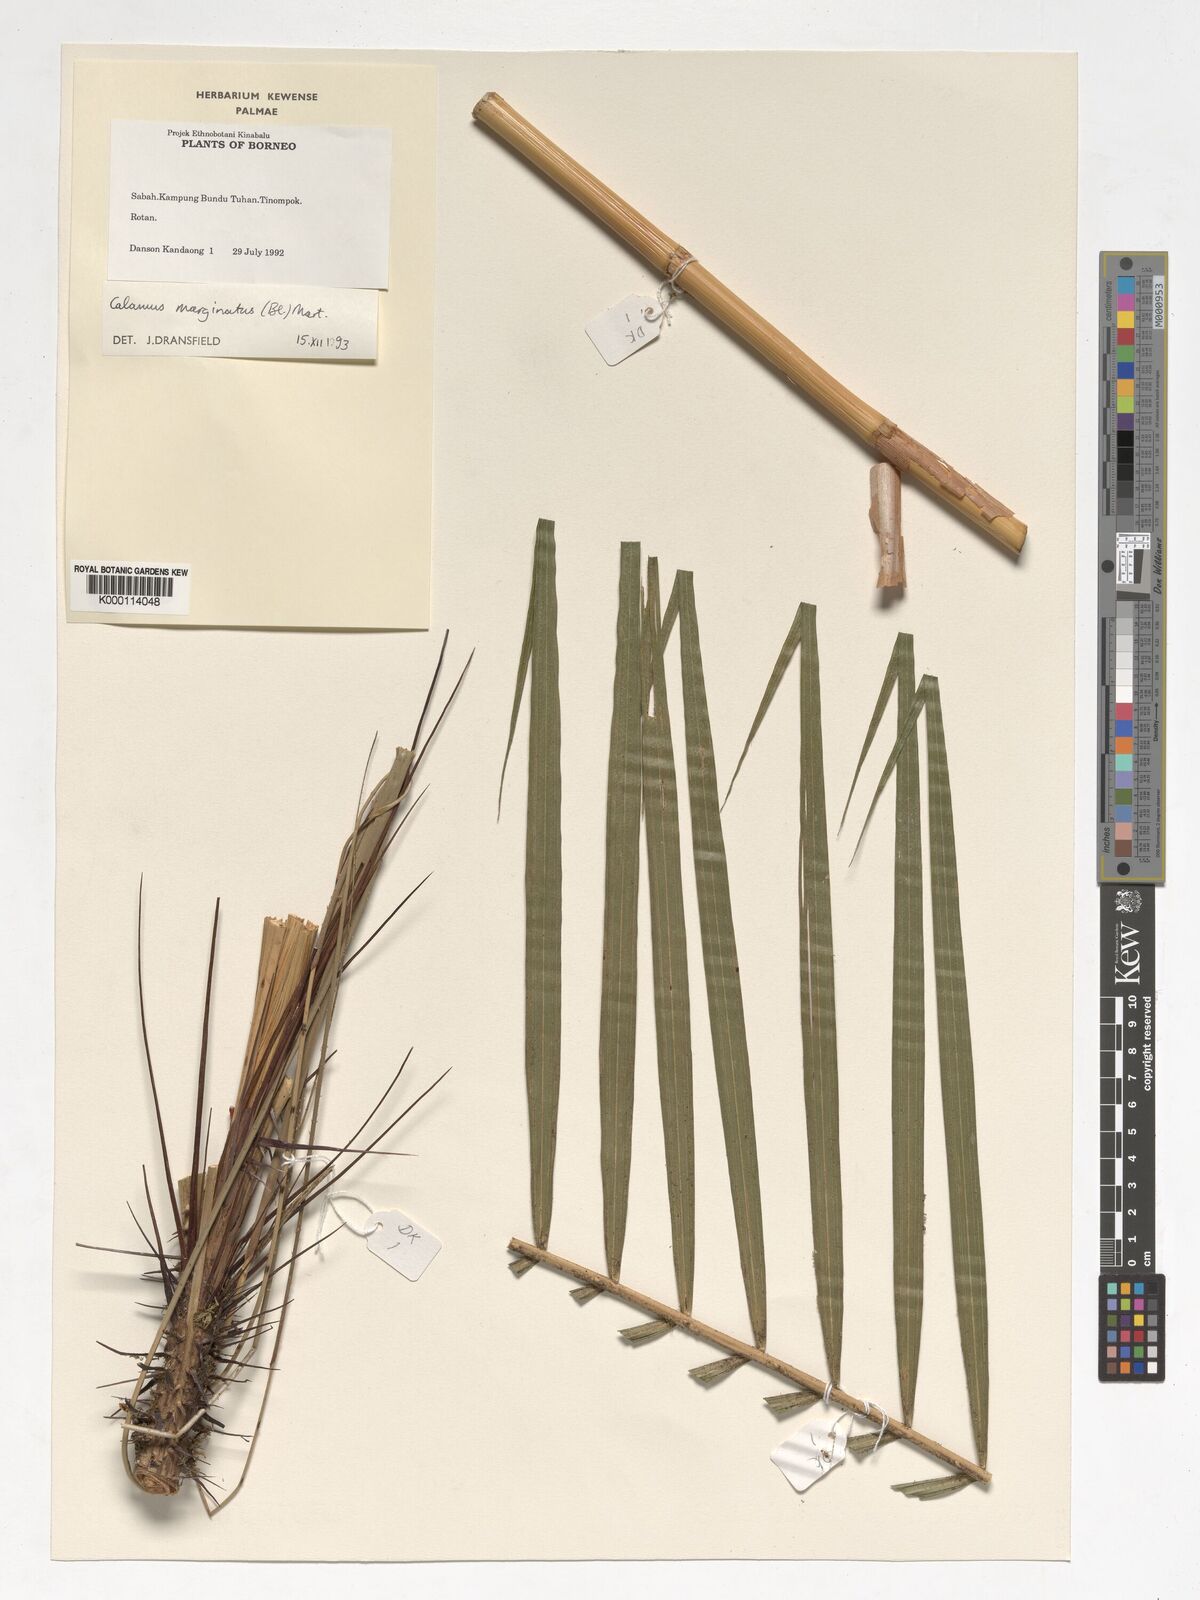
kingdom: Plantae
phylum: Tracheophyta
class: Liliopsida
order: Arecales
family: Arecaceae
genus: Calamus
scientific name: Calamus
